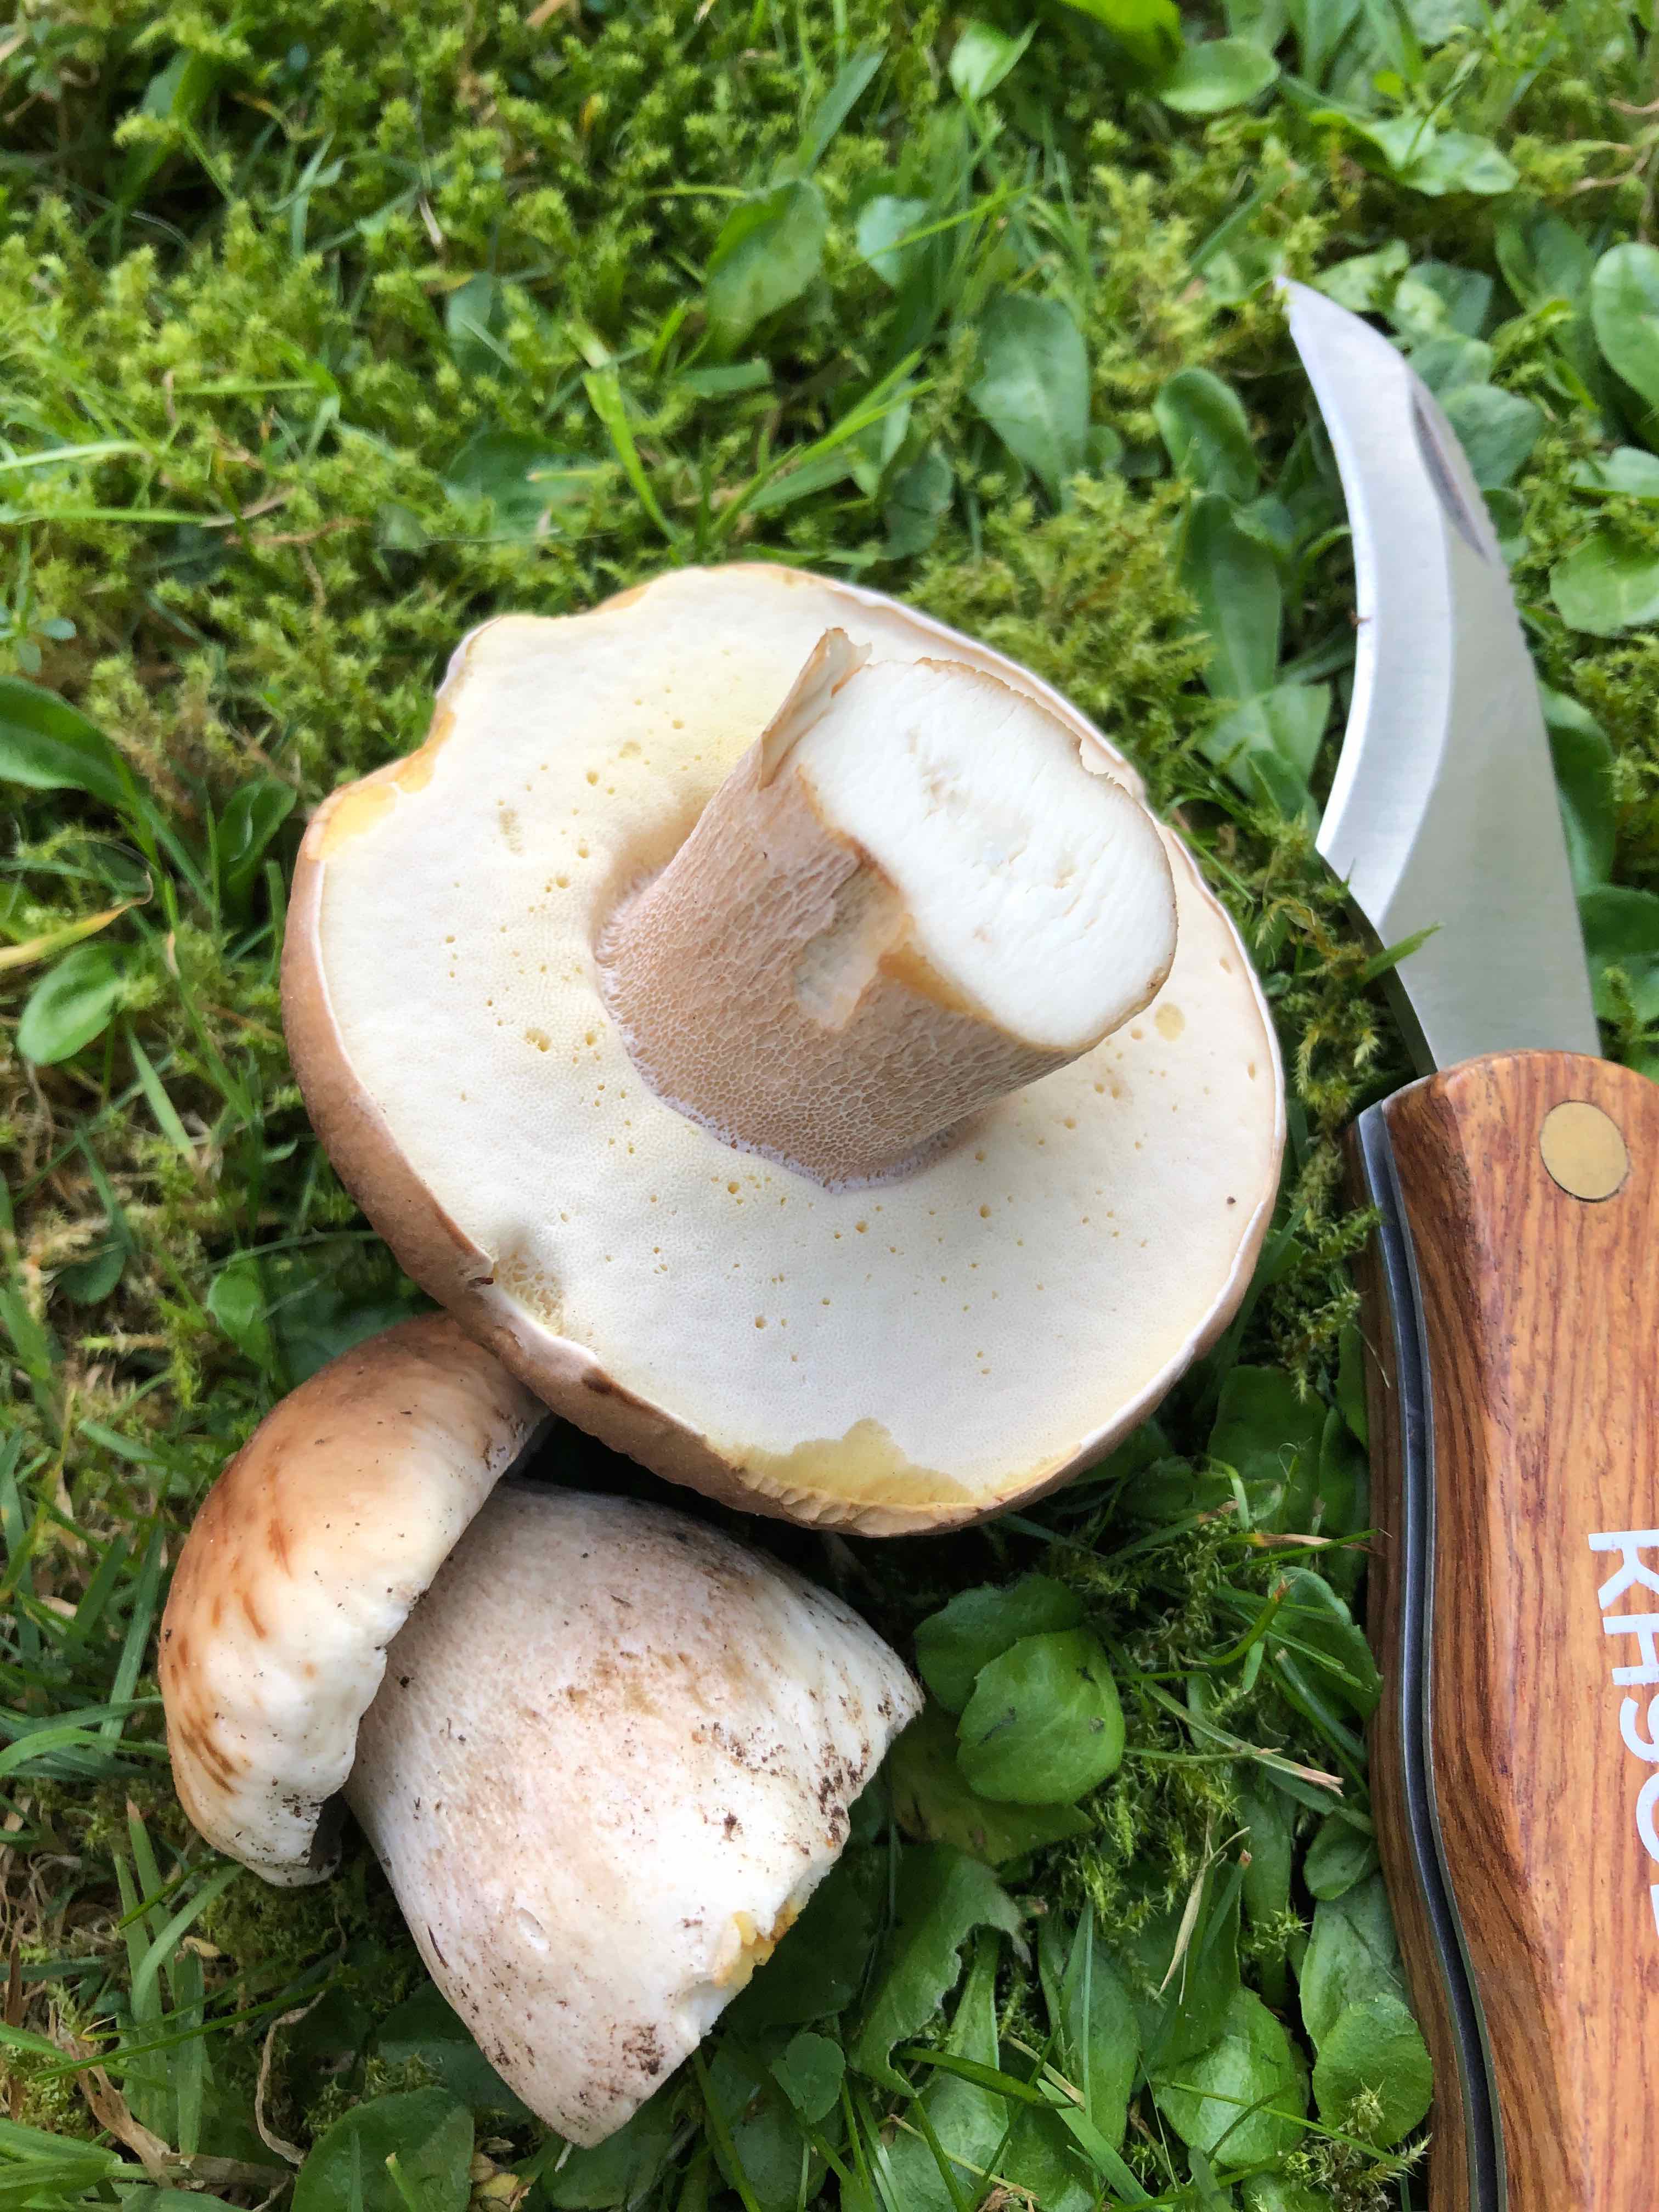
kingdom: Fungi
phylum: Basidiomycota
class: Agaricomycetes
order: Boletales
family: Boletaceae
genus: Boletus
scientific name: Boletus edulis
